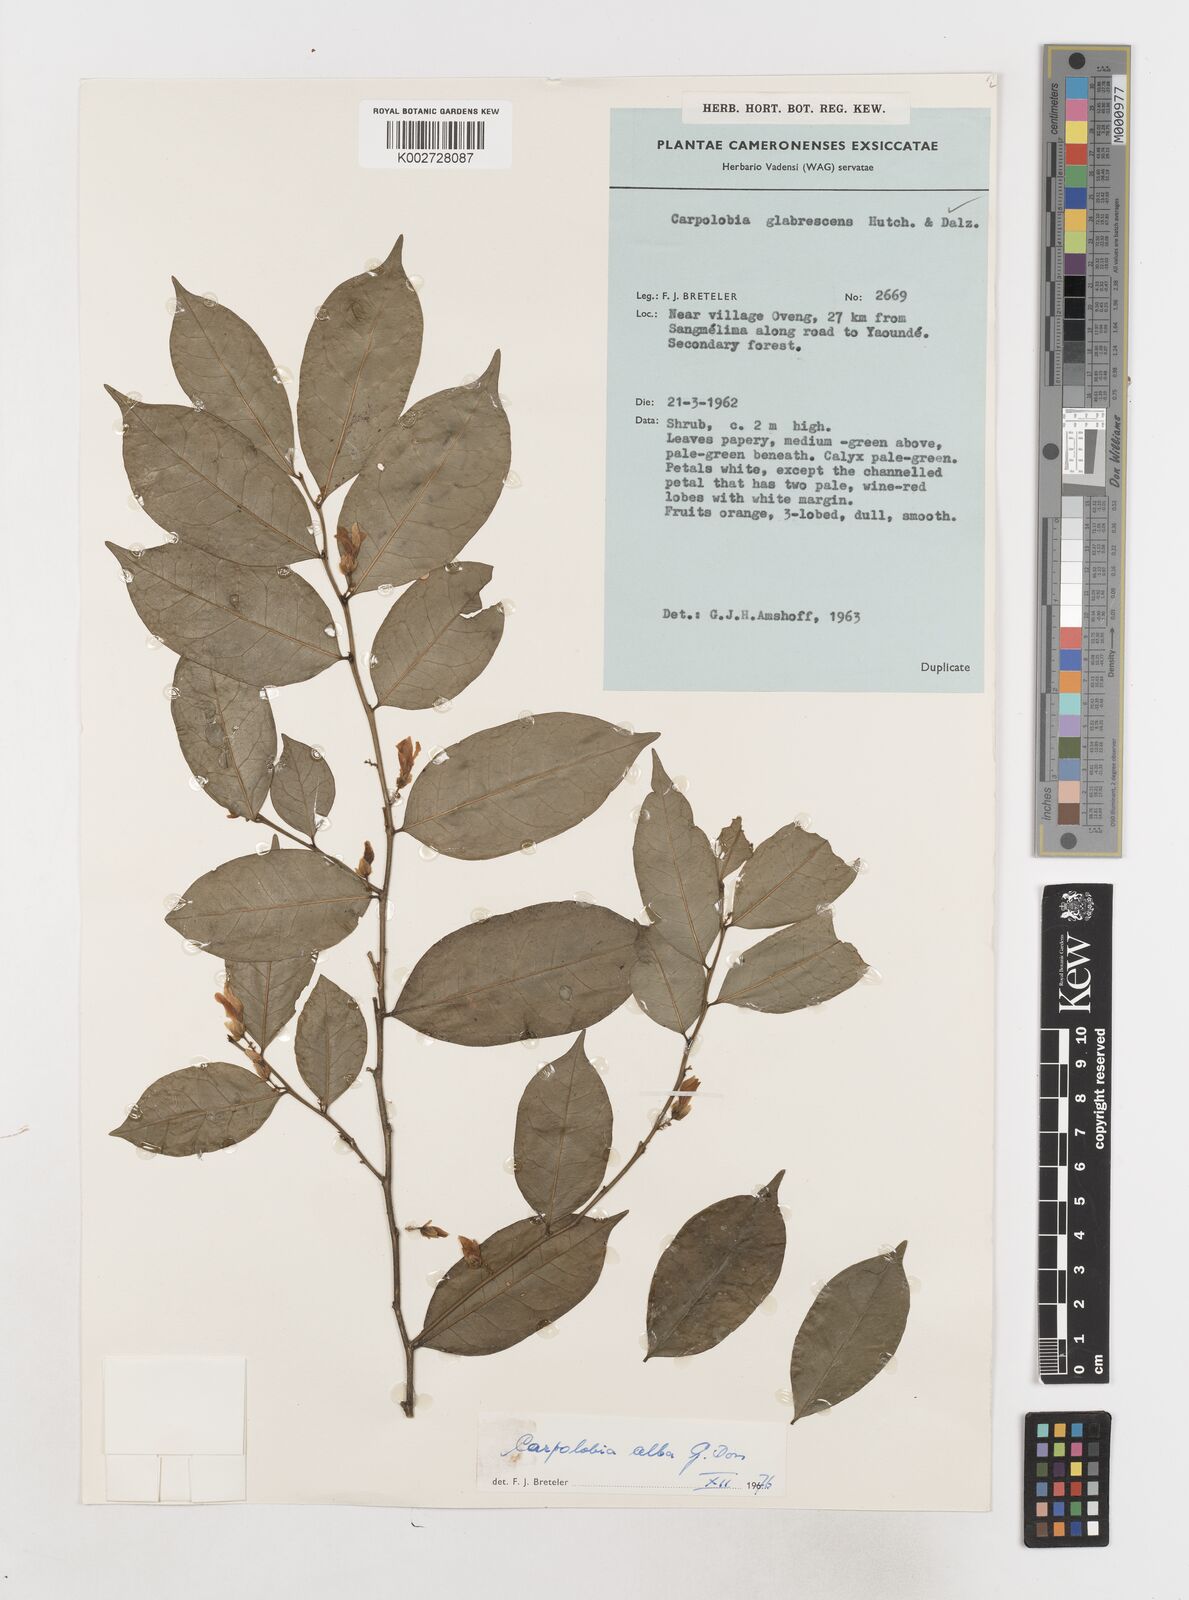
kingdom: Plantae
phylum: Tracheophyta
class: Magnoliopsida
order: Fabales
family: Polygalaceae
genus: Carpolobia
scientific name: Carpolobia alba
